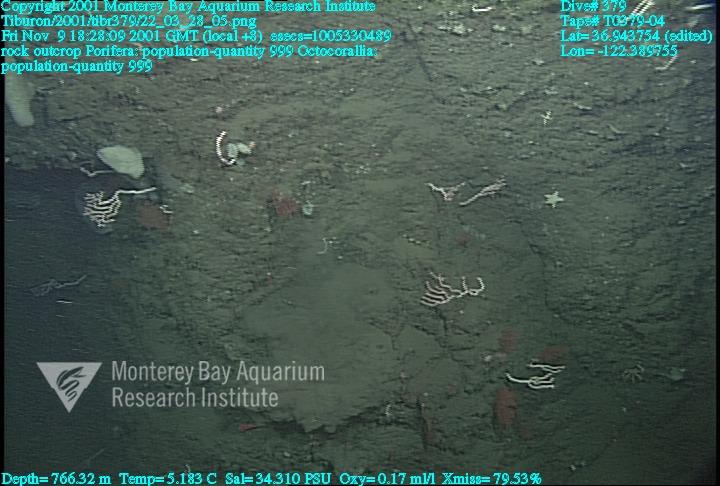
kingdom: Animalia
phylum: Porifera
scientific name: Porifera
